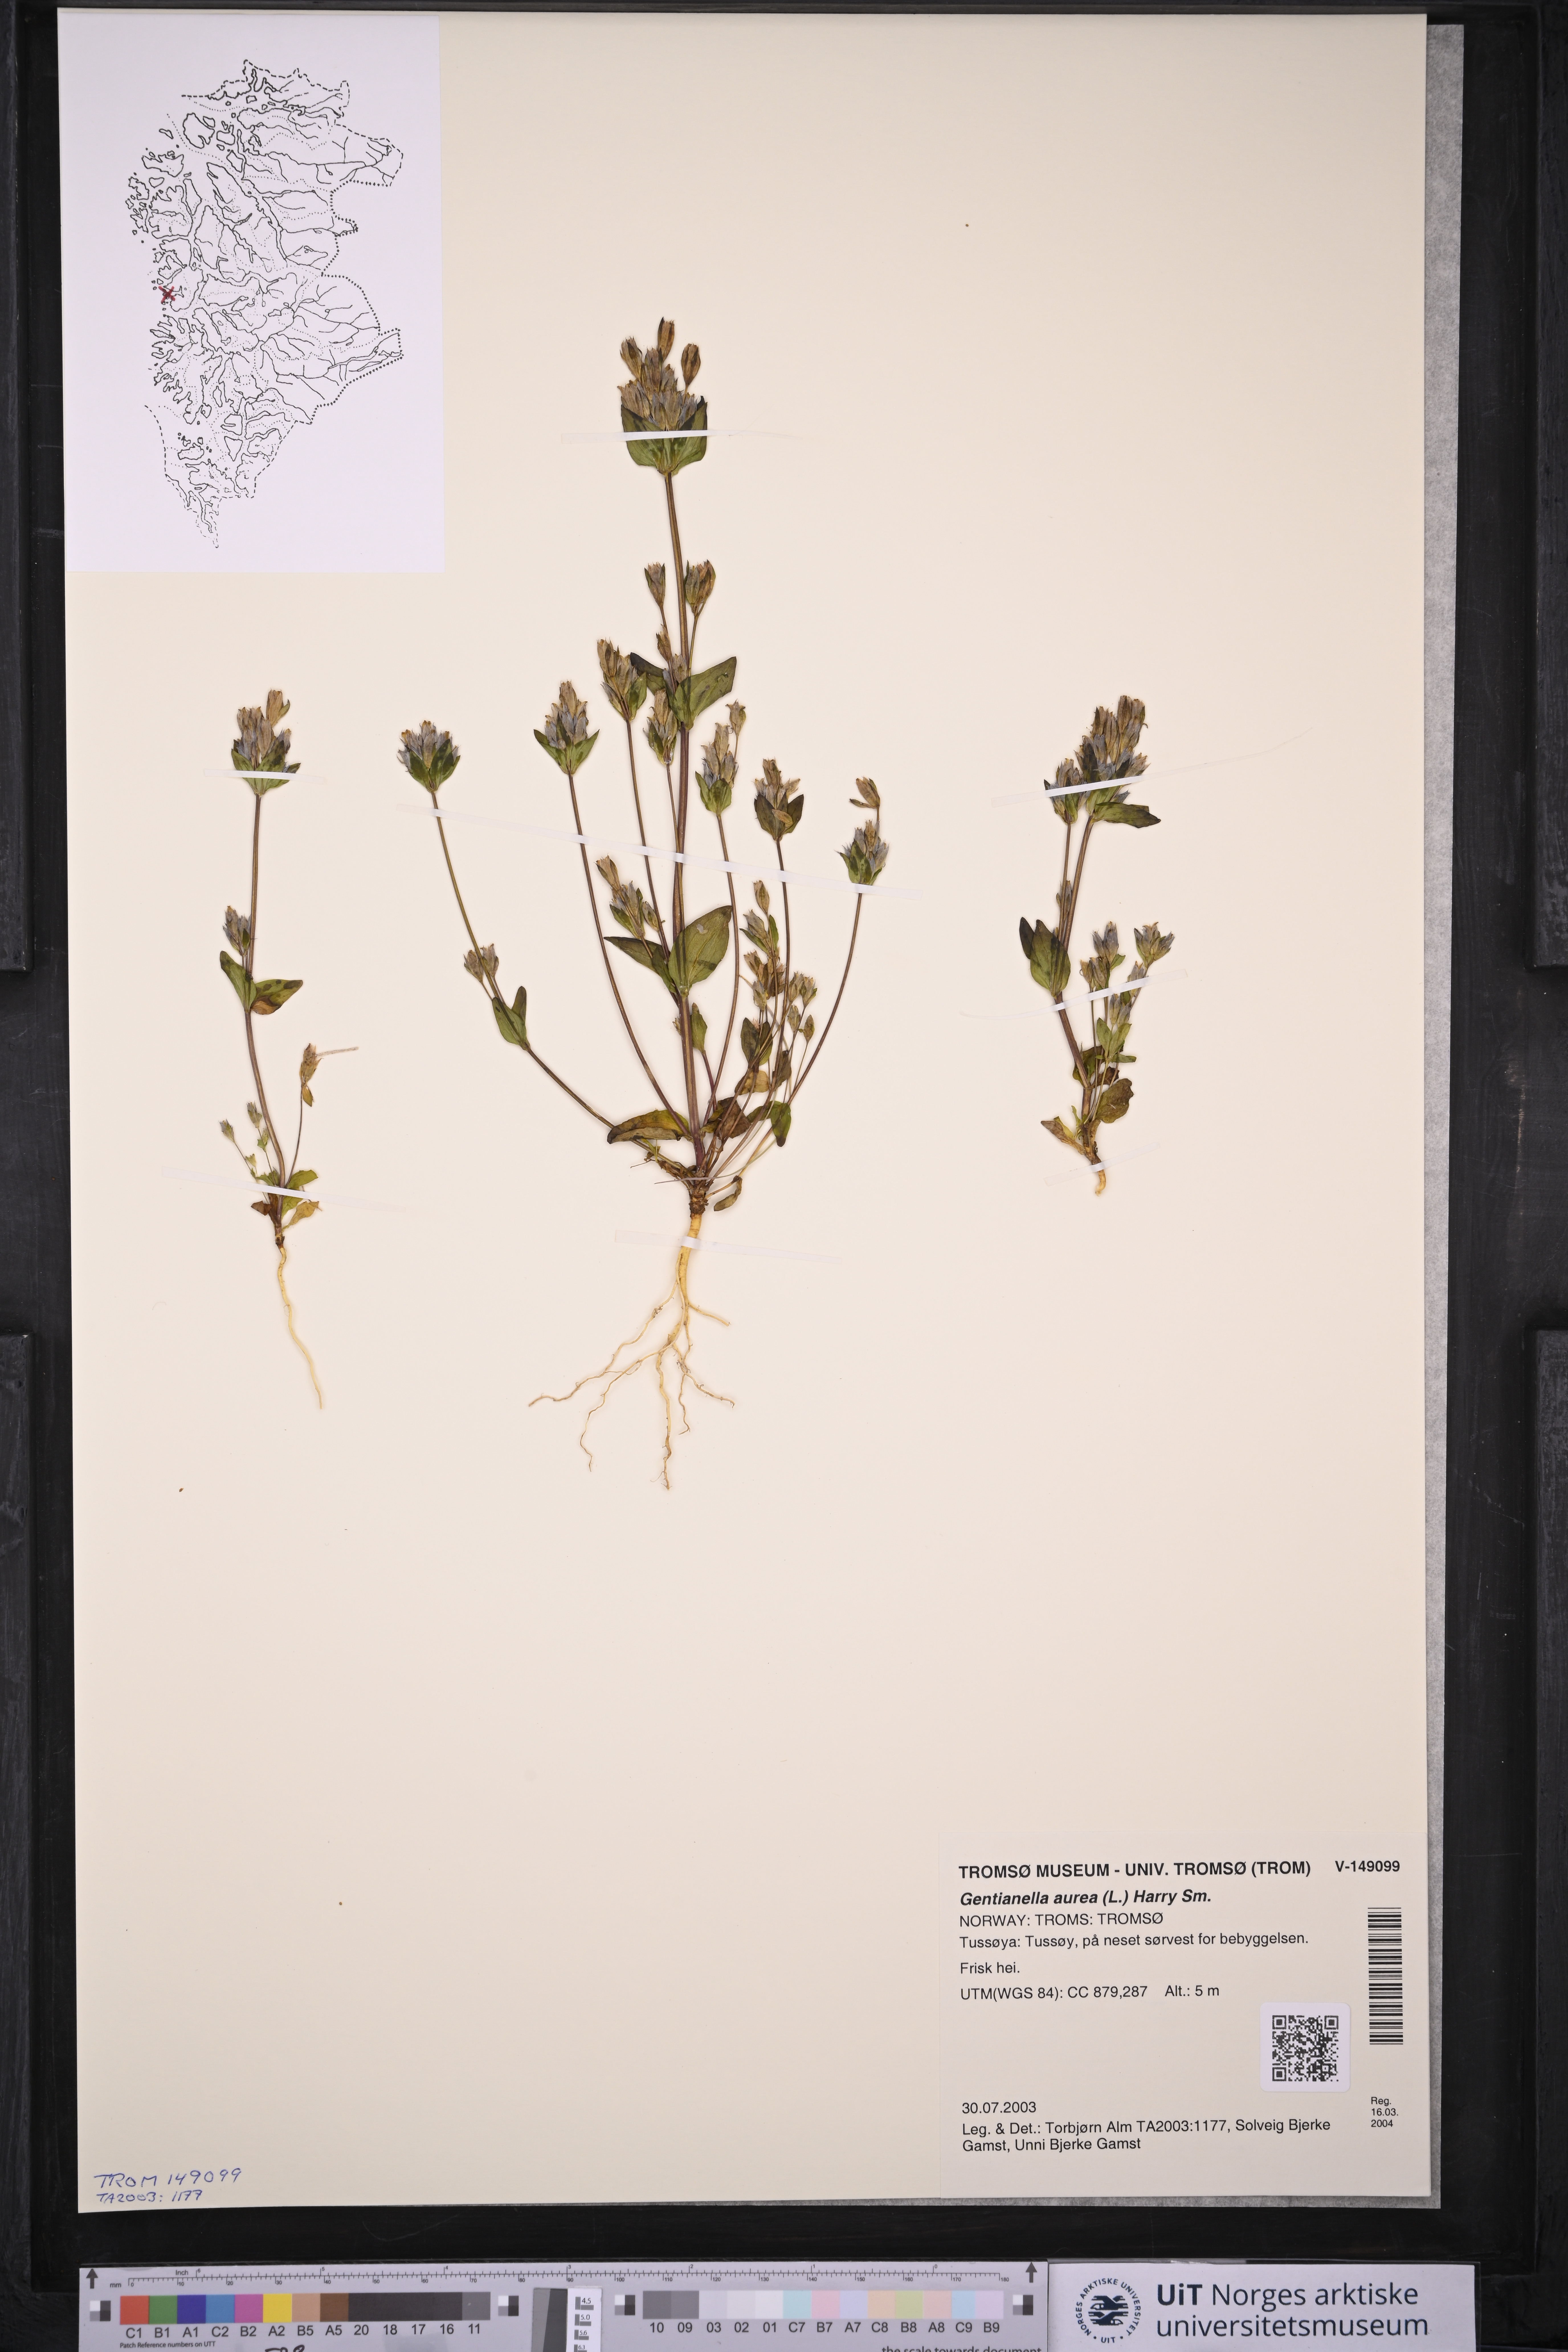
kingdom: Plantae
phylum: Tracheophyta
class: Magnoliopsida
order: Gentianales
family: Gentianaceae
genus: Gentianella
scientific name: Gentianella aurea
